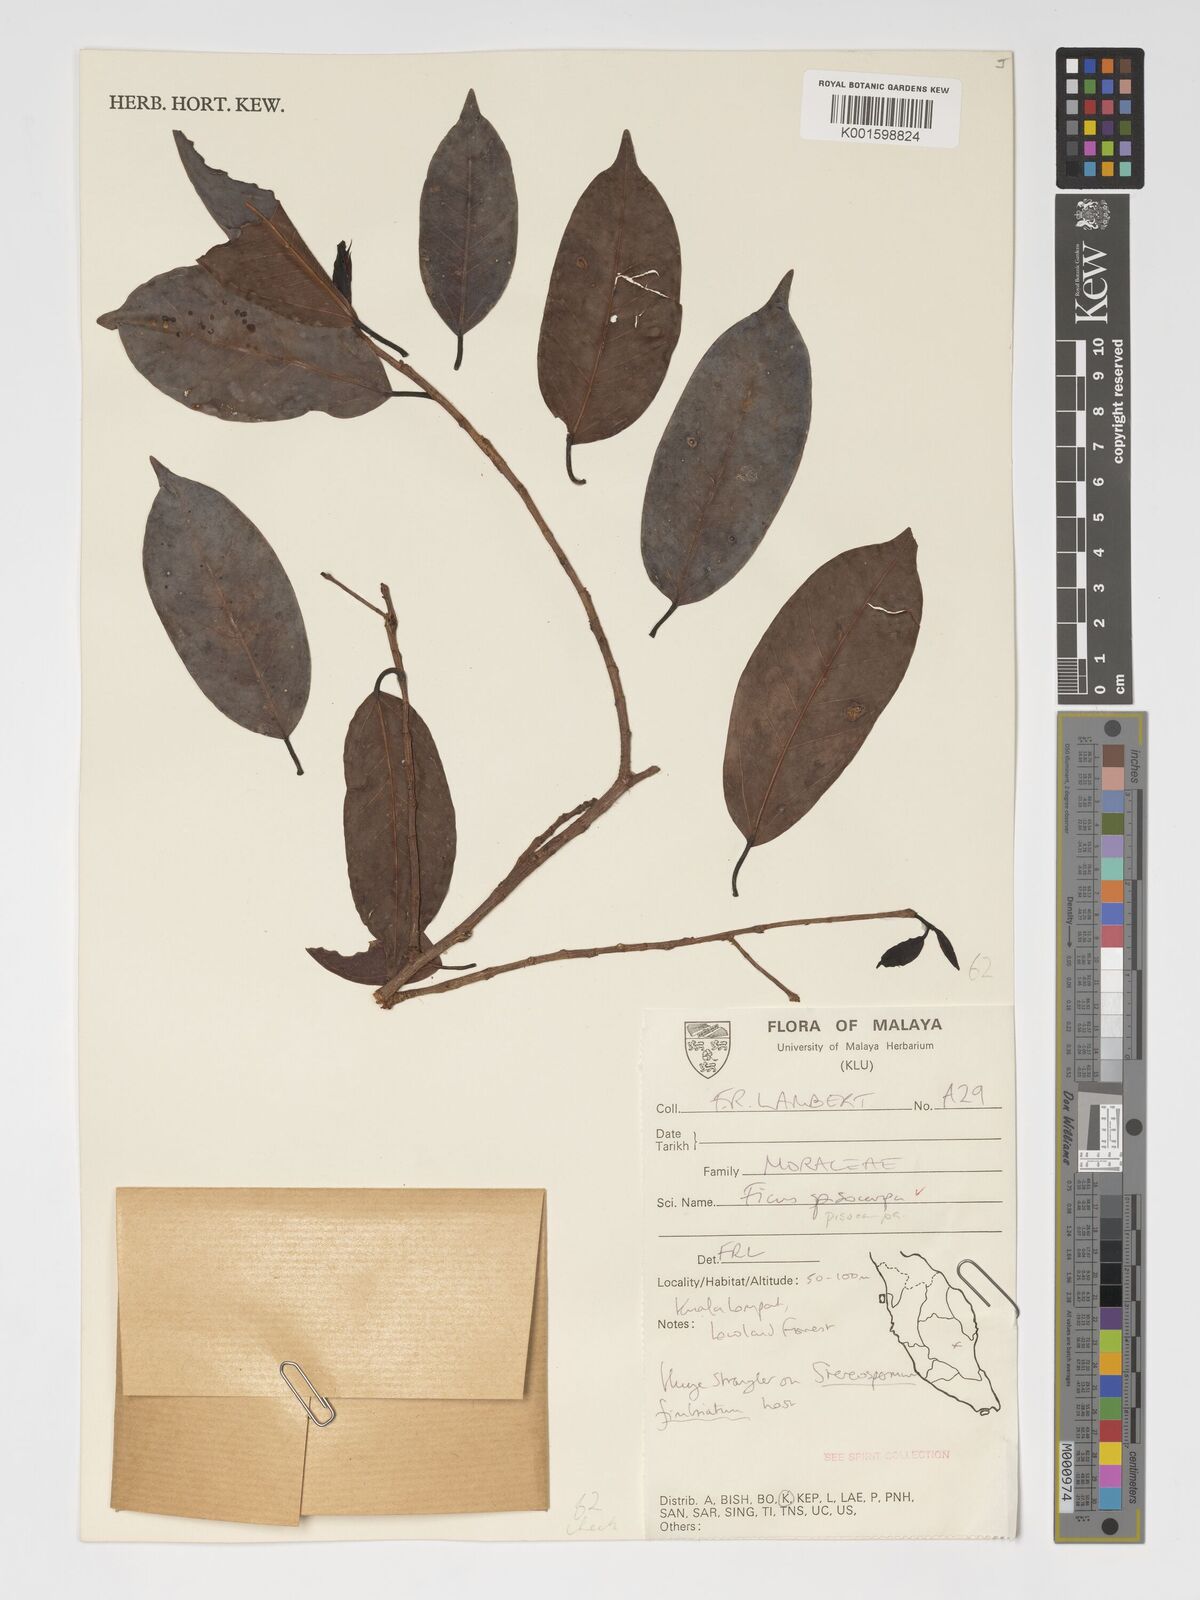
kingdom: Plantae
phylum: Tracheophyta
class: Magnoliopsida
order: Rosales
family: Moraceae
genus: Ficus
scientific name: Ficus pisocarpa
